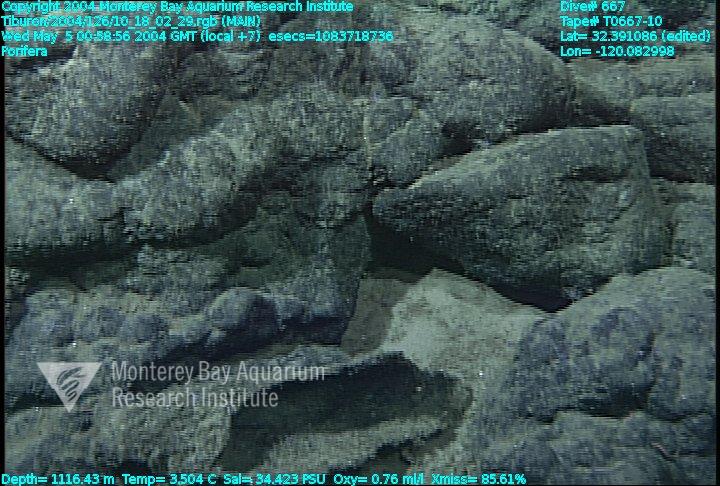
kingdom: Animalia
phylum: Porifera
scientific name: Porifera
